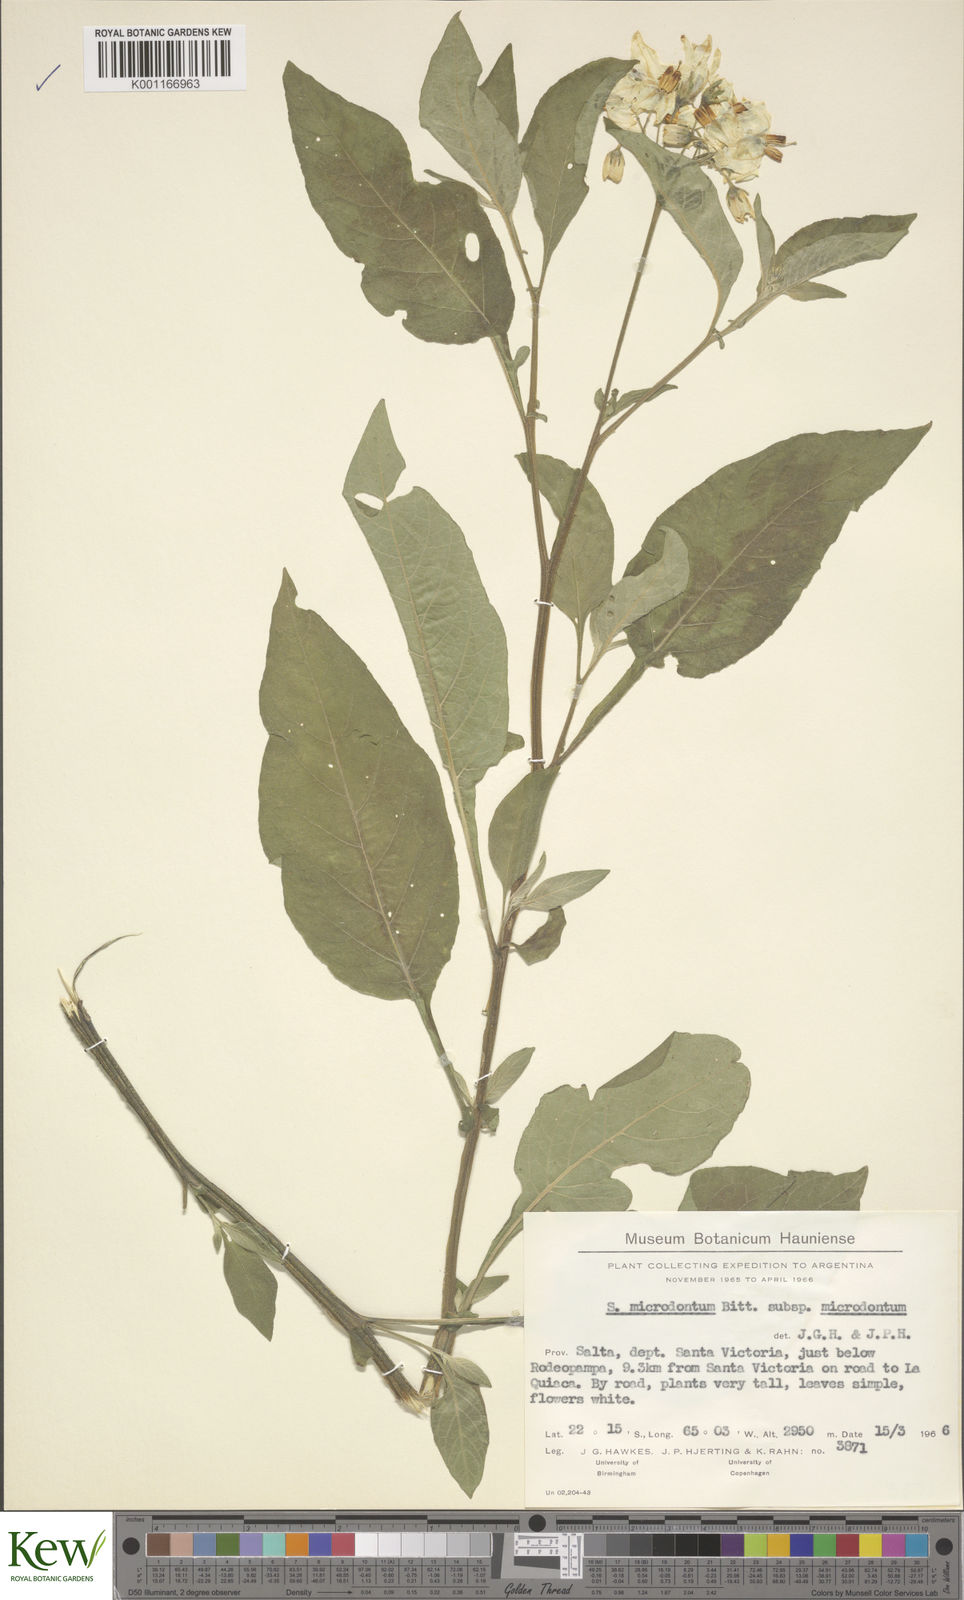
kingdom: Plantae
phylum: Tracheophyta
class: Magnoliopsida
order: Solanales
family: Solanaceae
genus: Solanum
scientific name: Solanum microdontum
